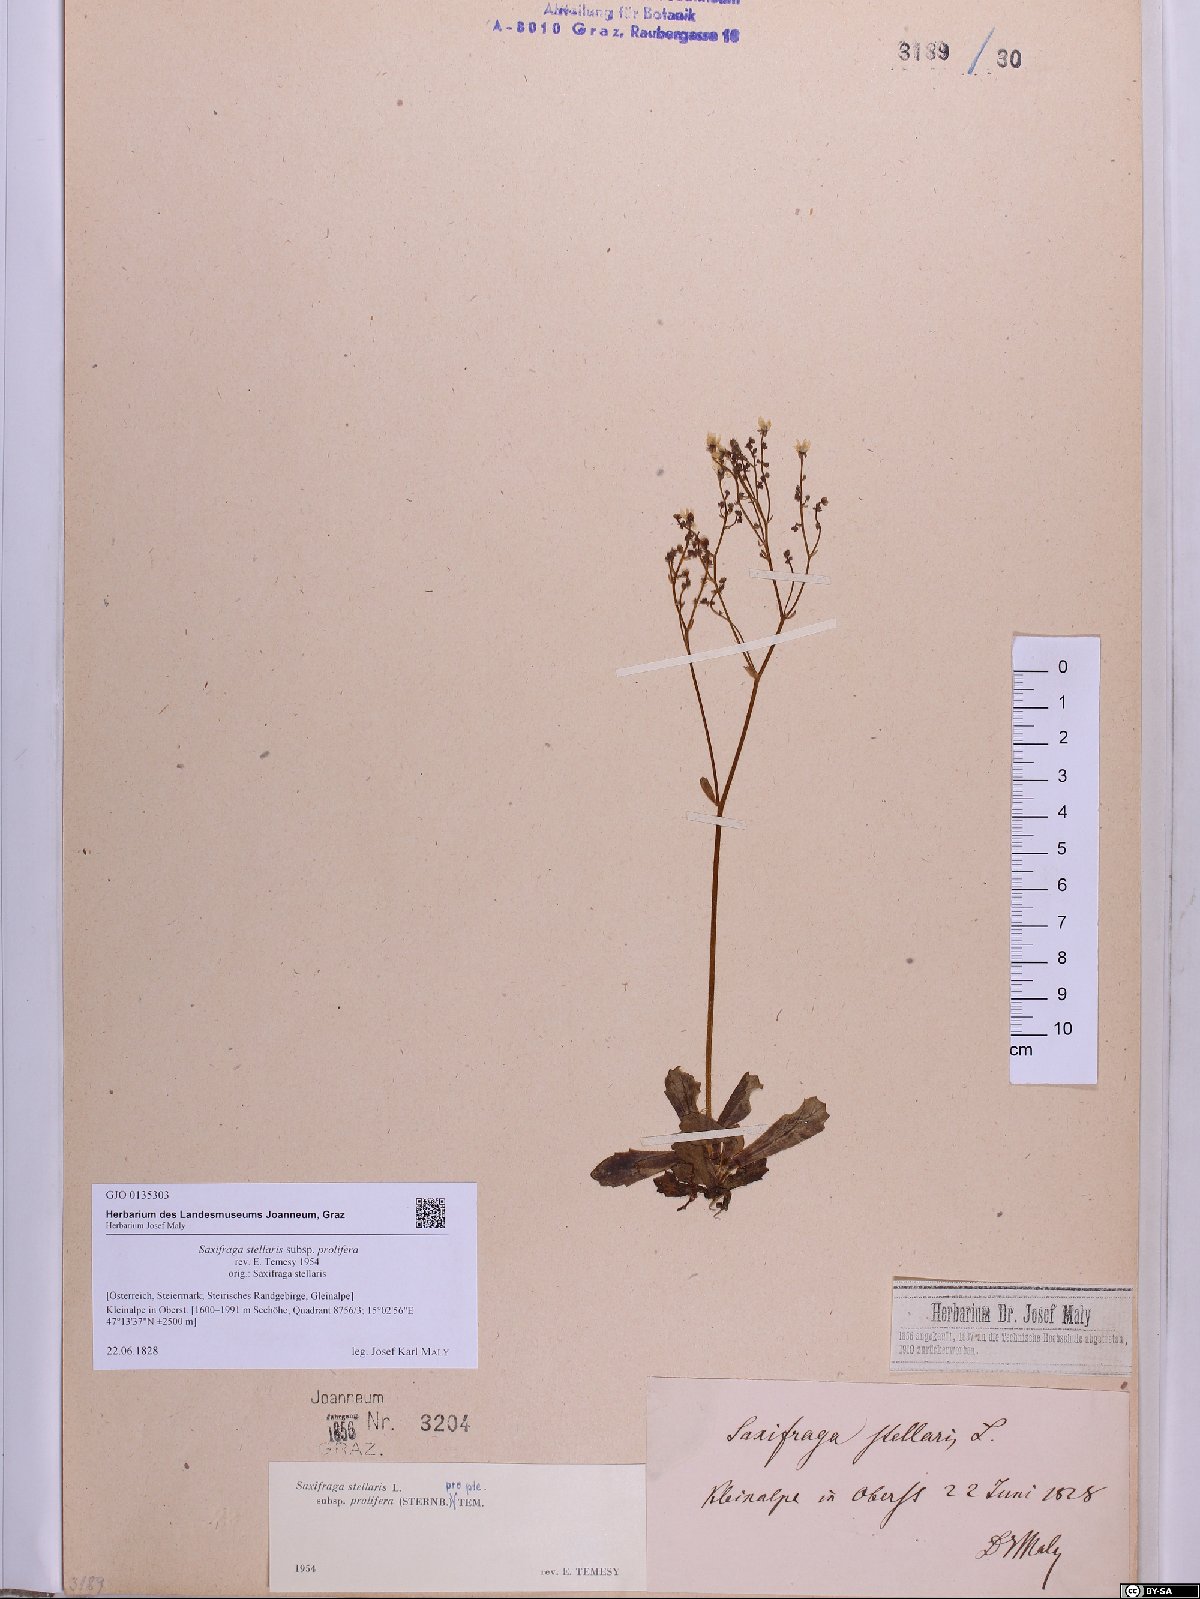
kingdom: Plantae
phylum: Tracheophyta
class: Magnoliopsida
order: Saxifragales
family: Saxifragaceae
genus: Micranthes
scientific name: Micranthes stellaris
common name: Starry saxifrage
